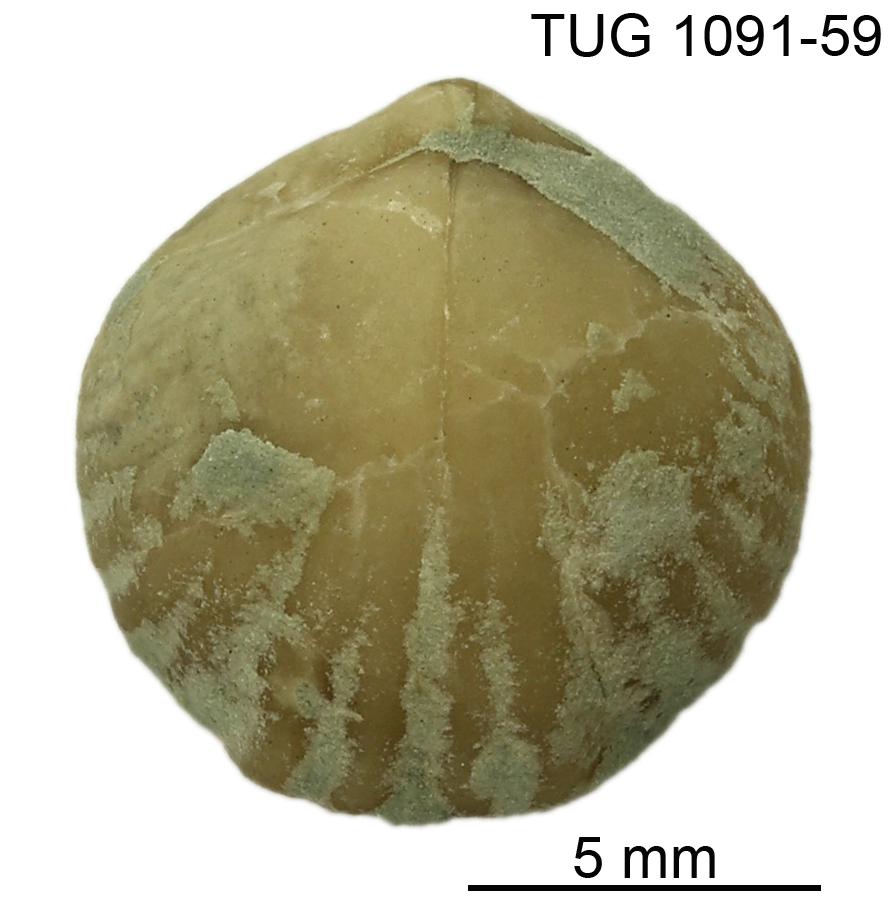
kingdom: Animalia
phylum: Brachiopoda
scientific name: Brachiopoda
